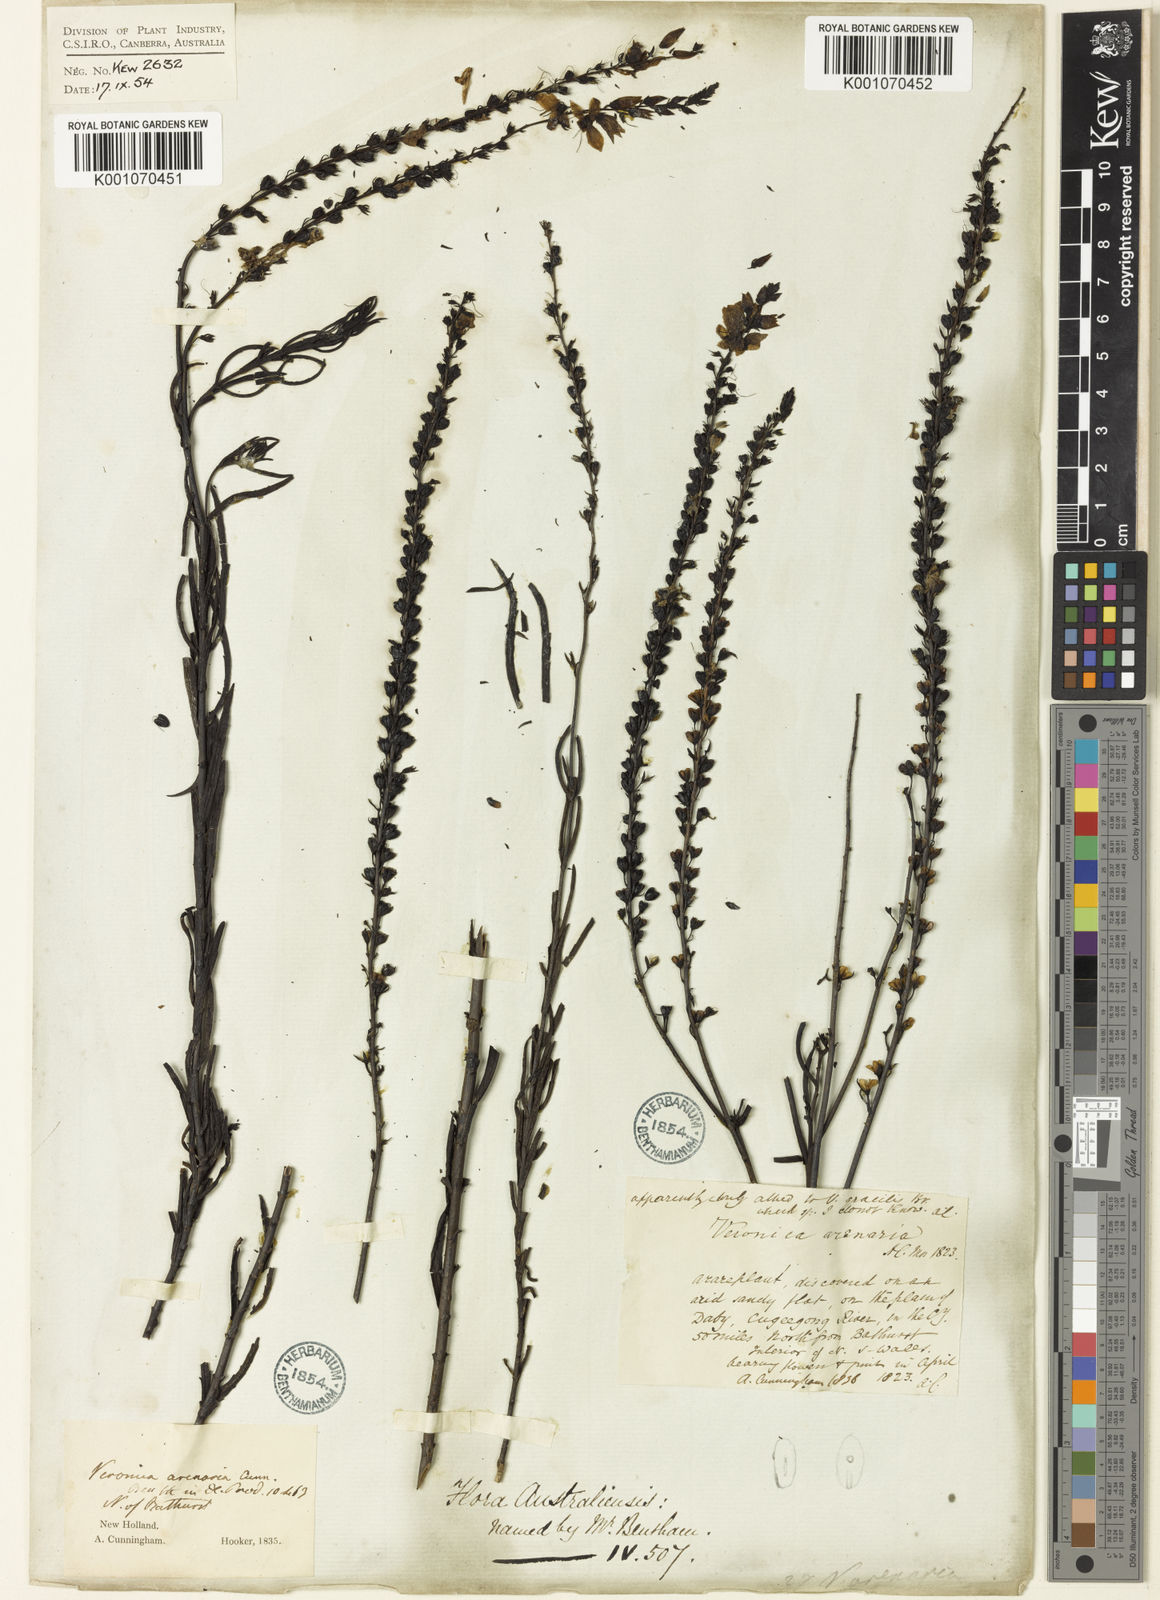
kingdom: Plantae
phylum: Tracheophyta
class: Magnoliopsida
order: Lamiales
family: Plantaginaceae
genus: Veronica
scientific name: Veronica
